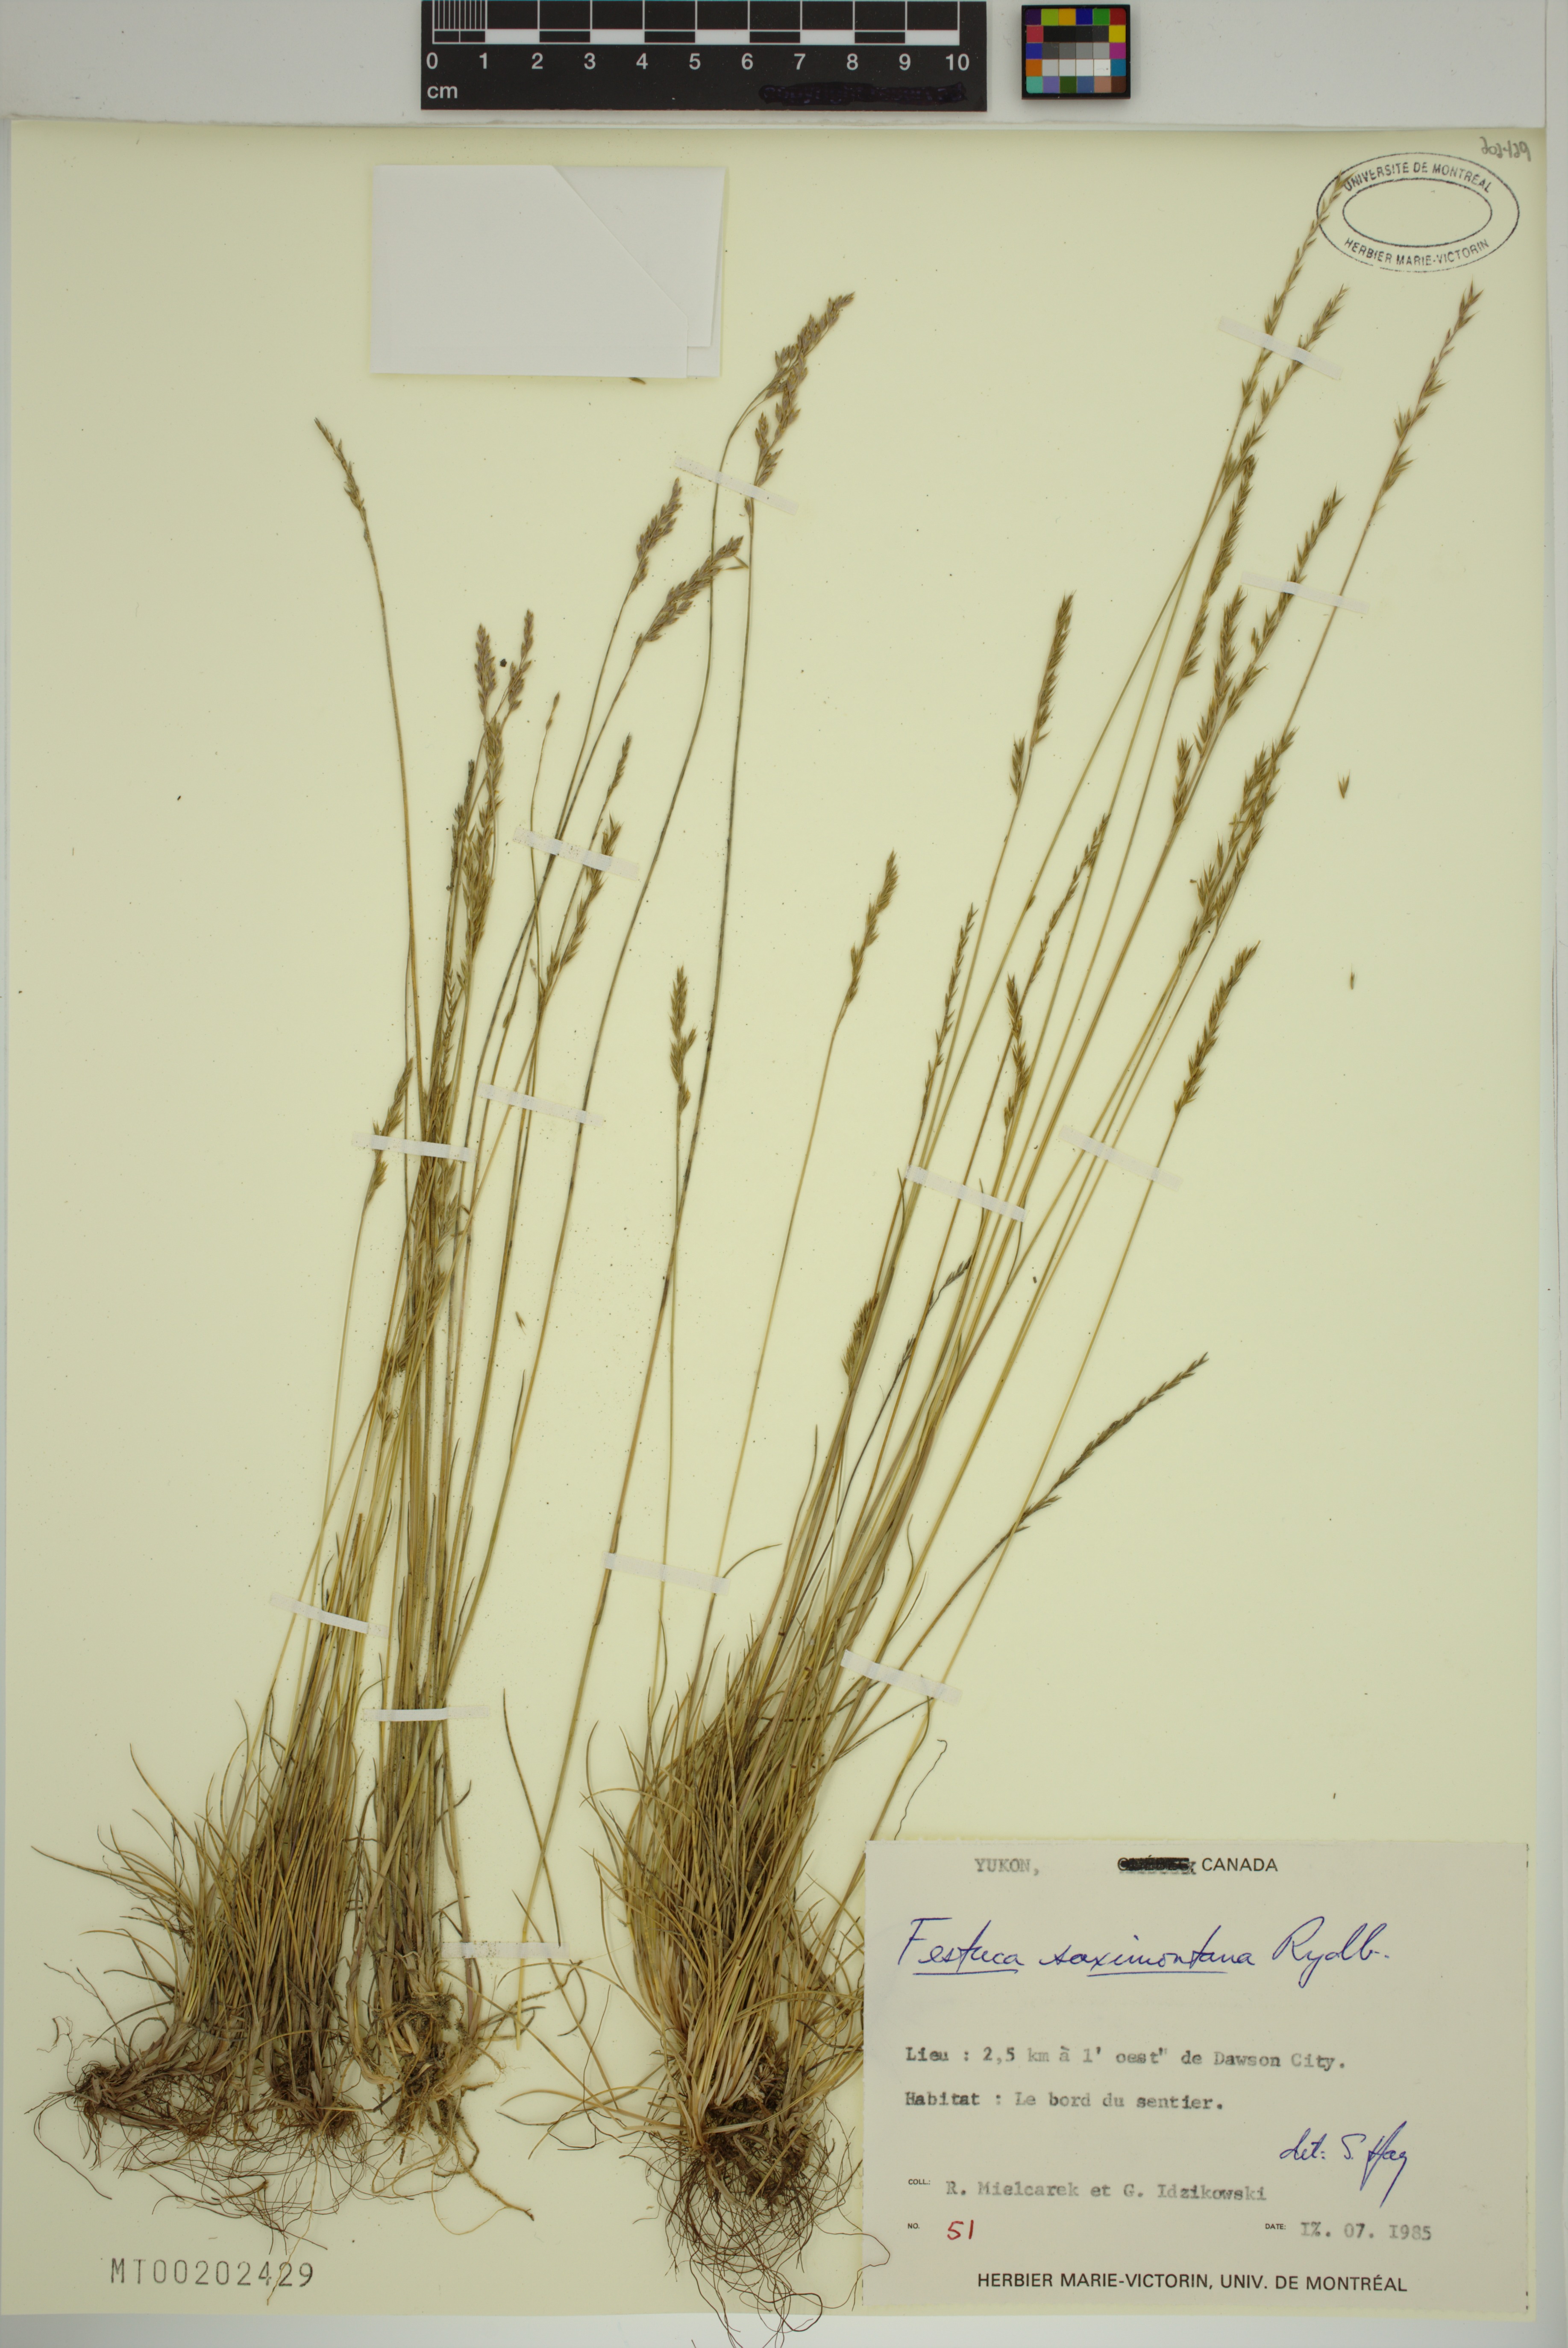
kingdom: Plantae
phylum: Tracheophyta
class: Liliopsida
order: Poales
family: Poaceae
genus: Festuca
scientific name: Festuca saximontana
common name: Mountain fescue
